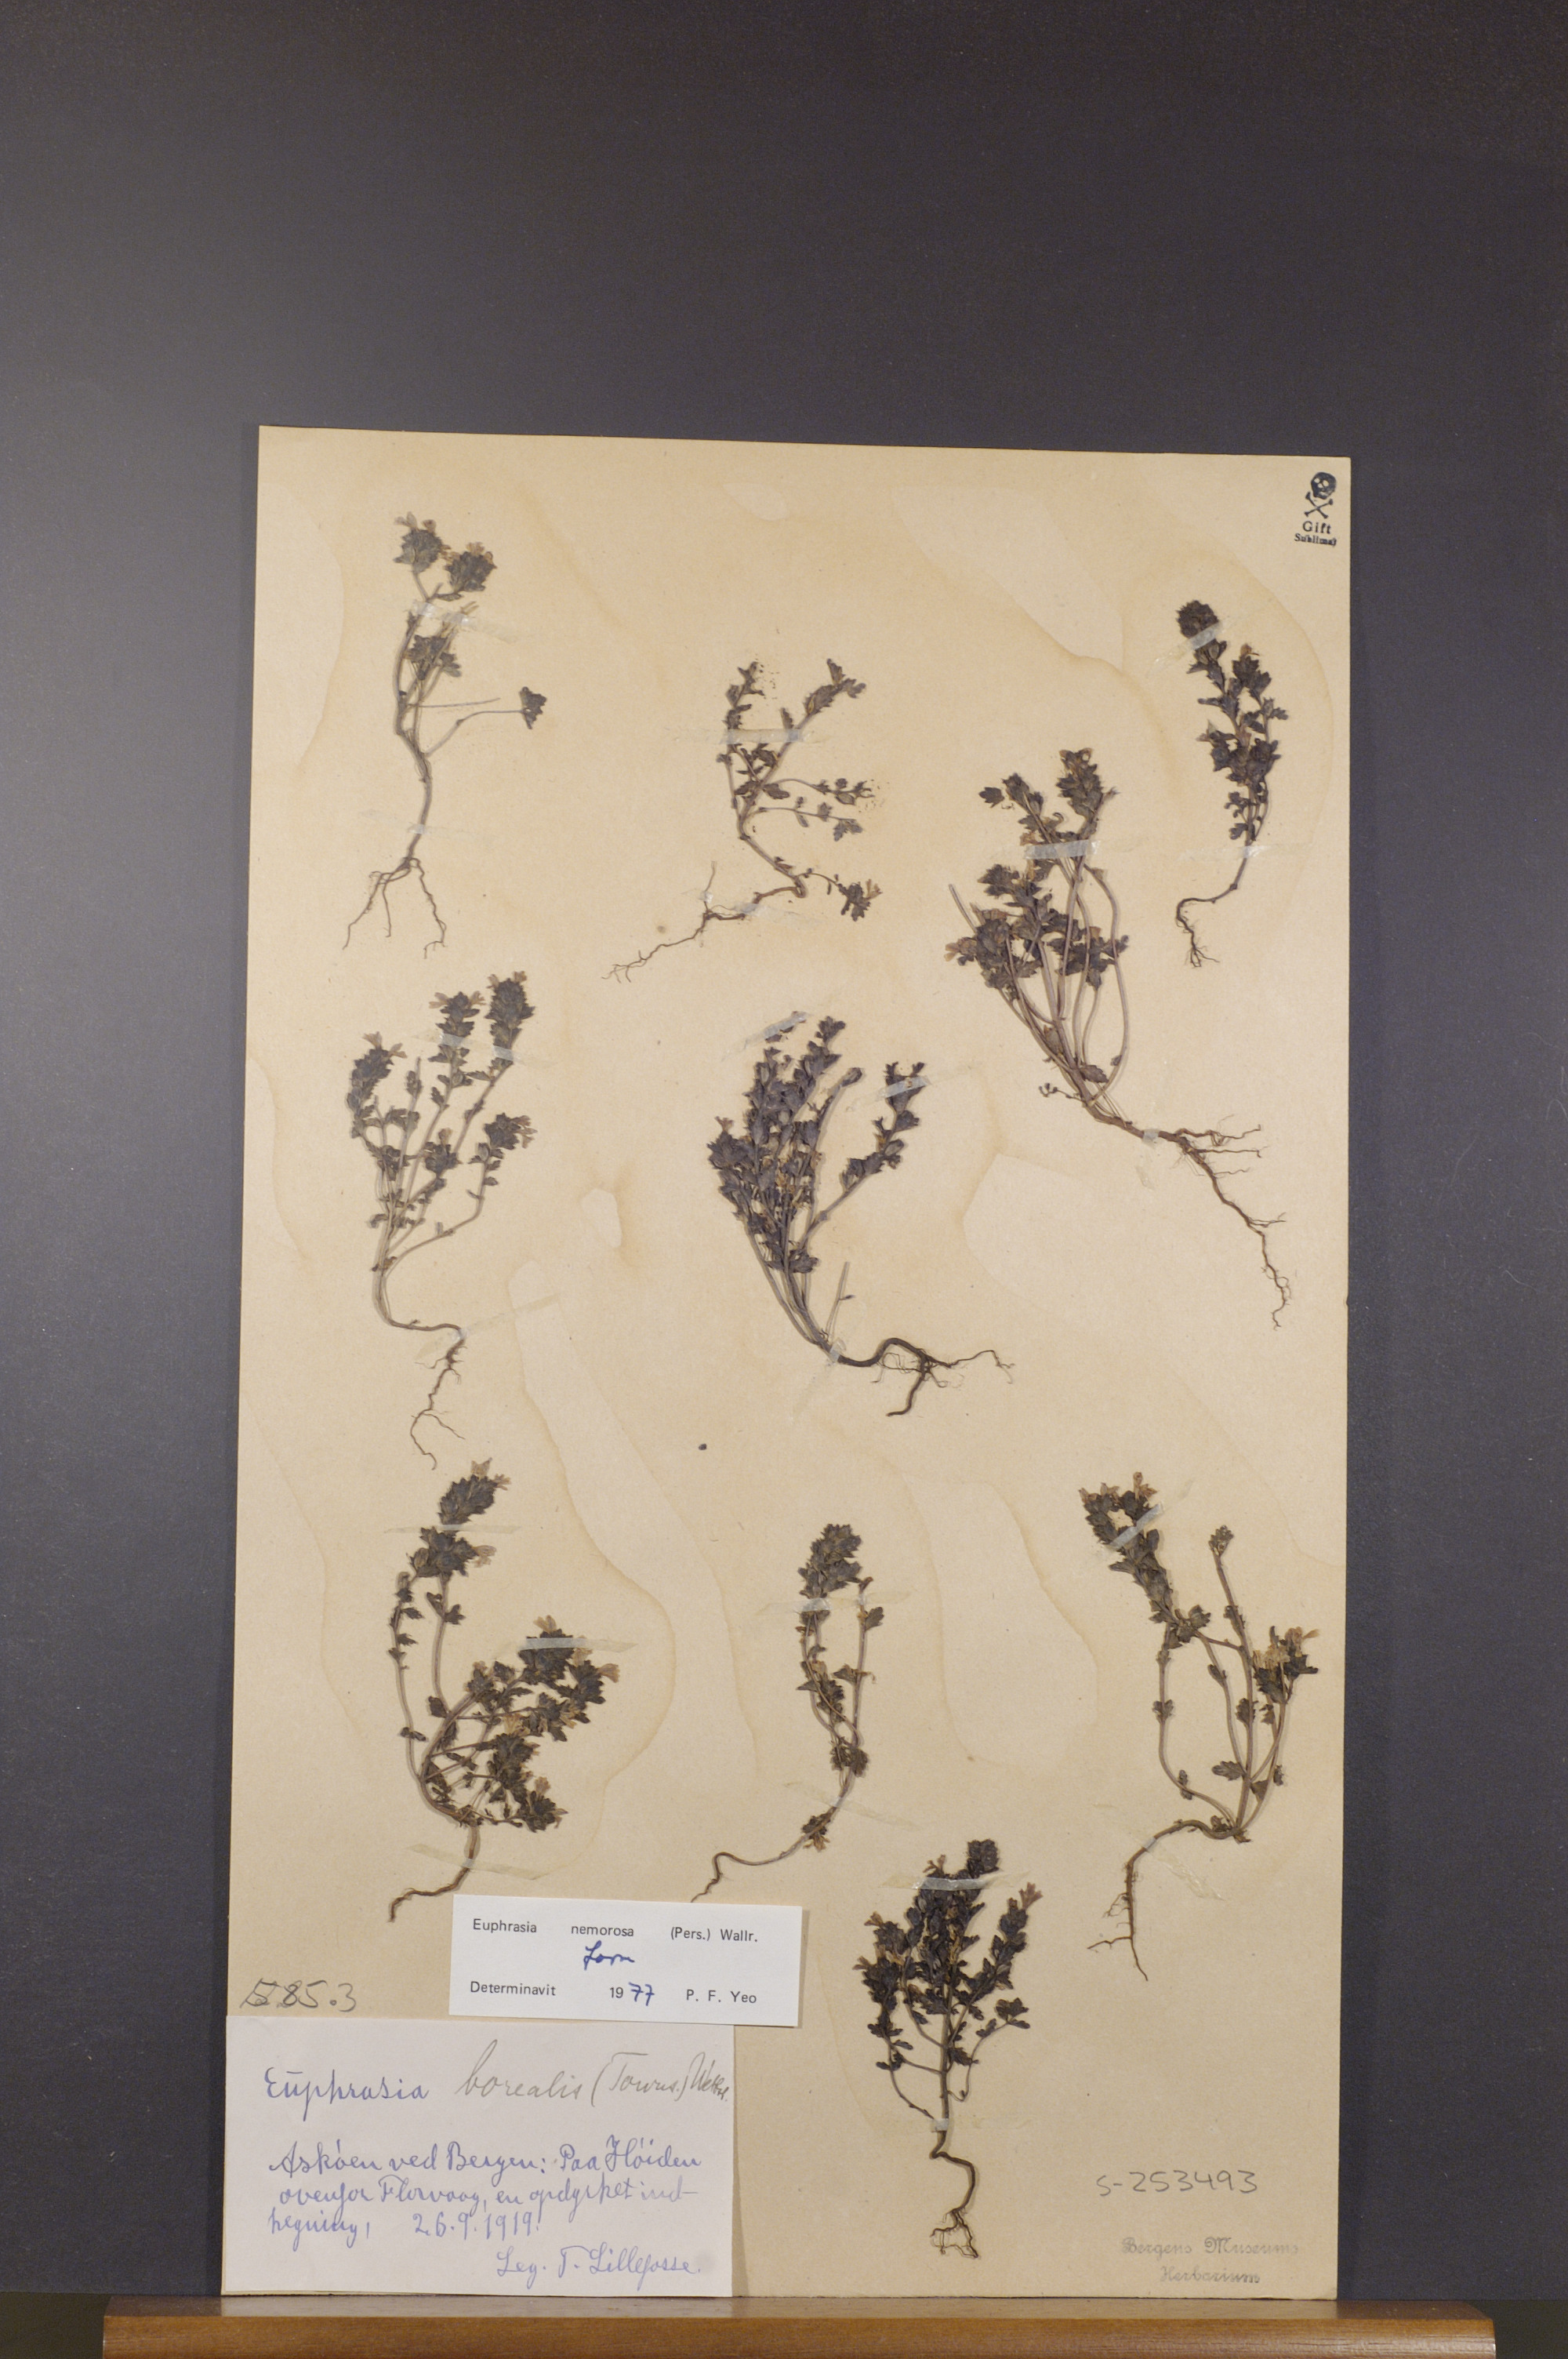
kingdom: Plantae
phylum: Tracheophyta
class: Magnoliopsida
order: Lamiales
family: Orobanchaceae
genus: Euphrasia
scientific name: Euphrasia nemorosa
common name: Common eyebright
